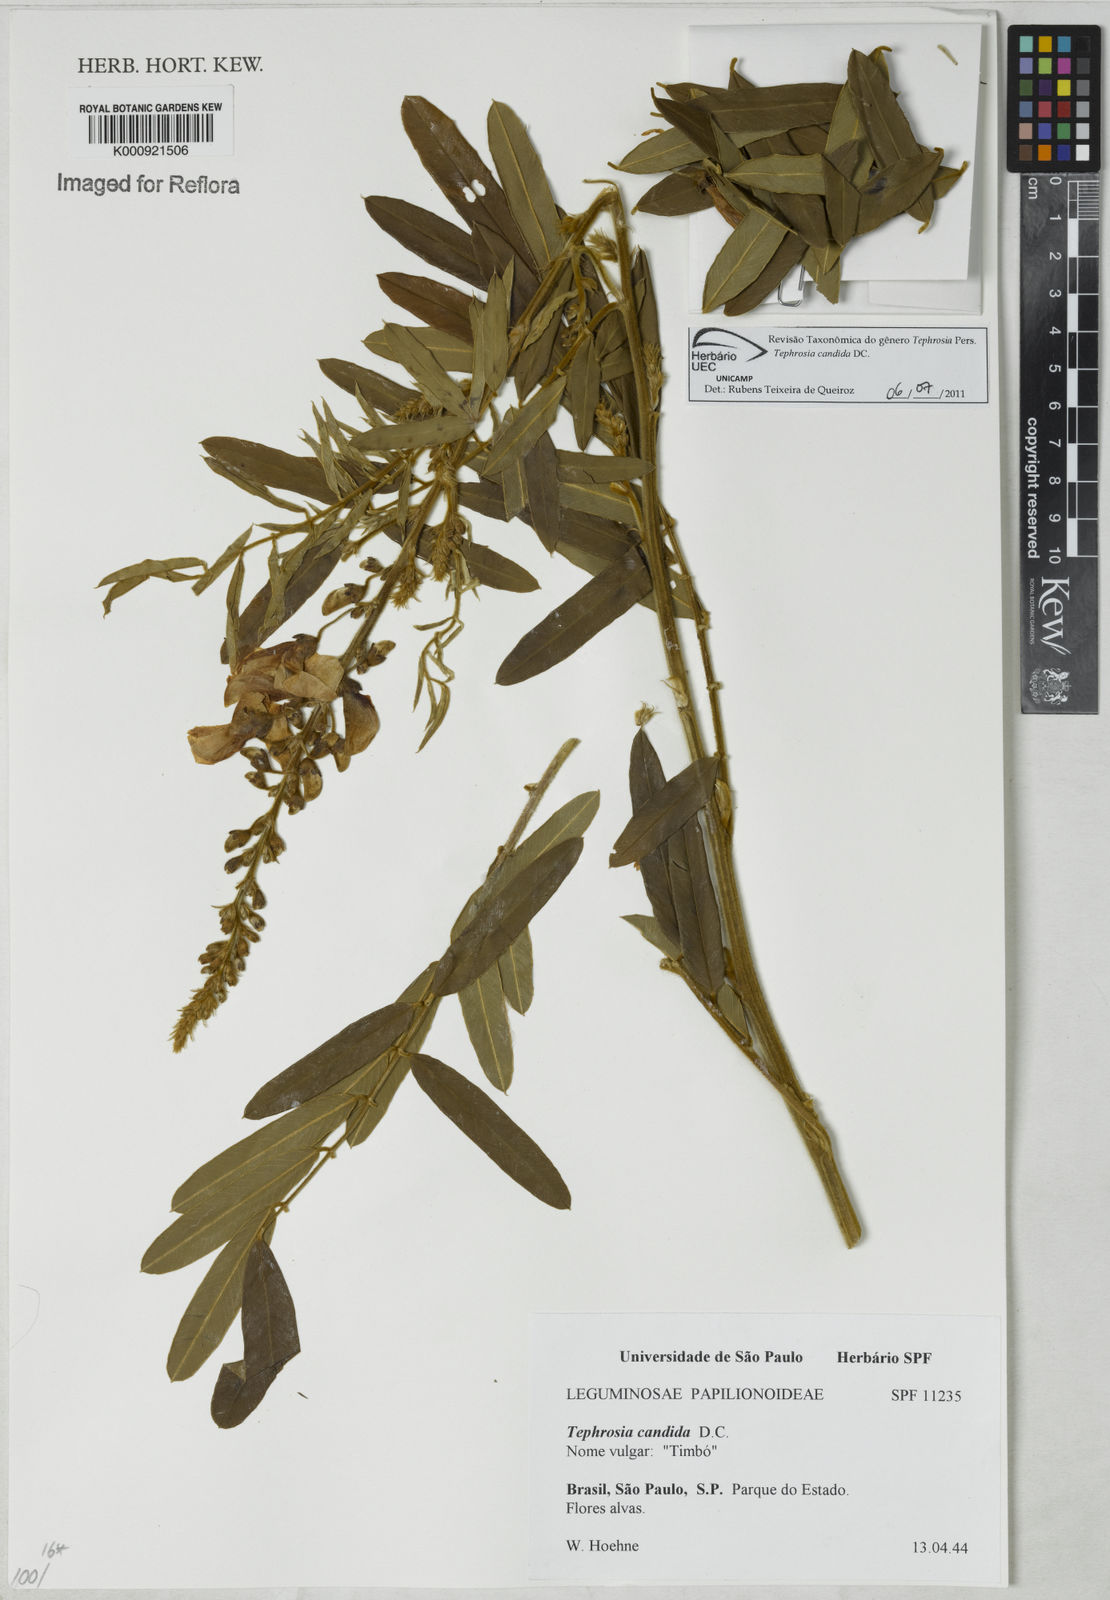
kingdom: Plantae
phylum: Tracheophyta
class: Magnoliopsida
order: Fabales
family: Fabaceae
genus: Tephrosia
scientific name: Tephrosia candida
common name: White tephrosia
